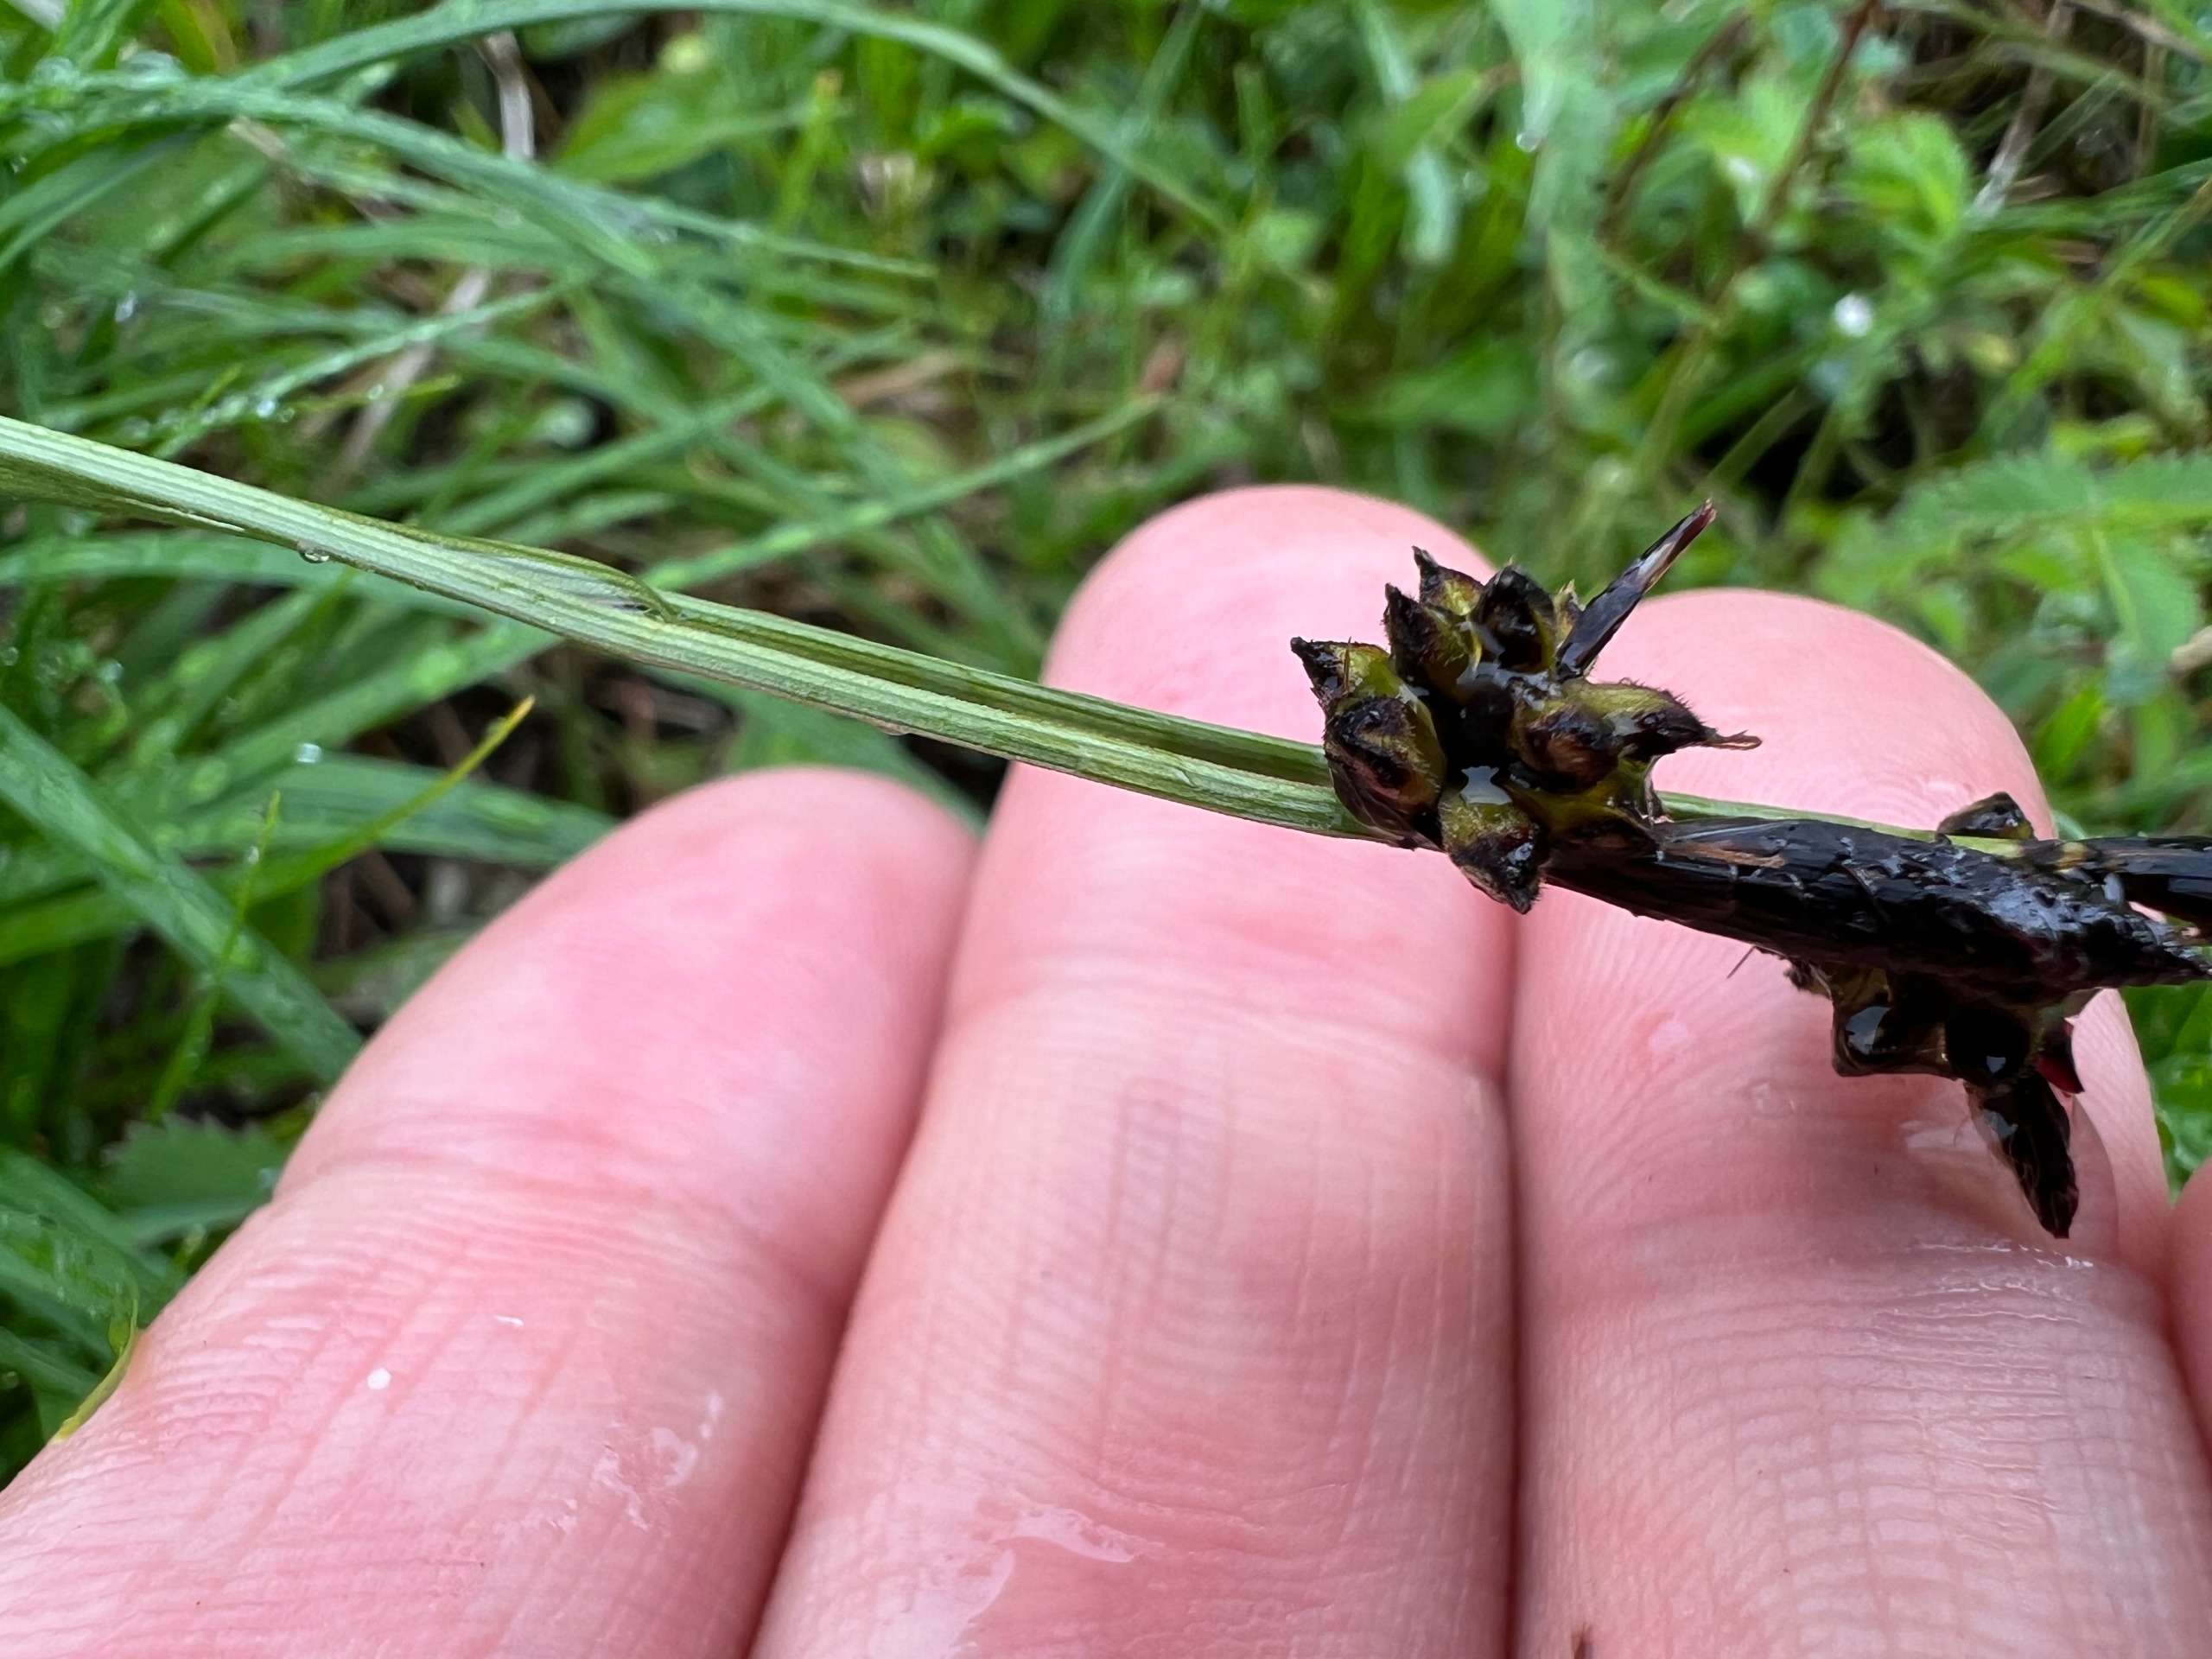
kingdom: Plantae
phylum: Tracheophyta
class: Liliopsida
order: Poales
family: Cyperaceae
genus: Carex
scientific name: Carex montana
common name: Bakke-star
